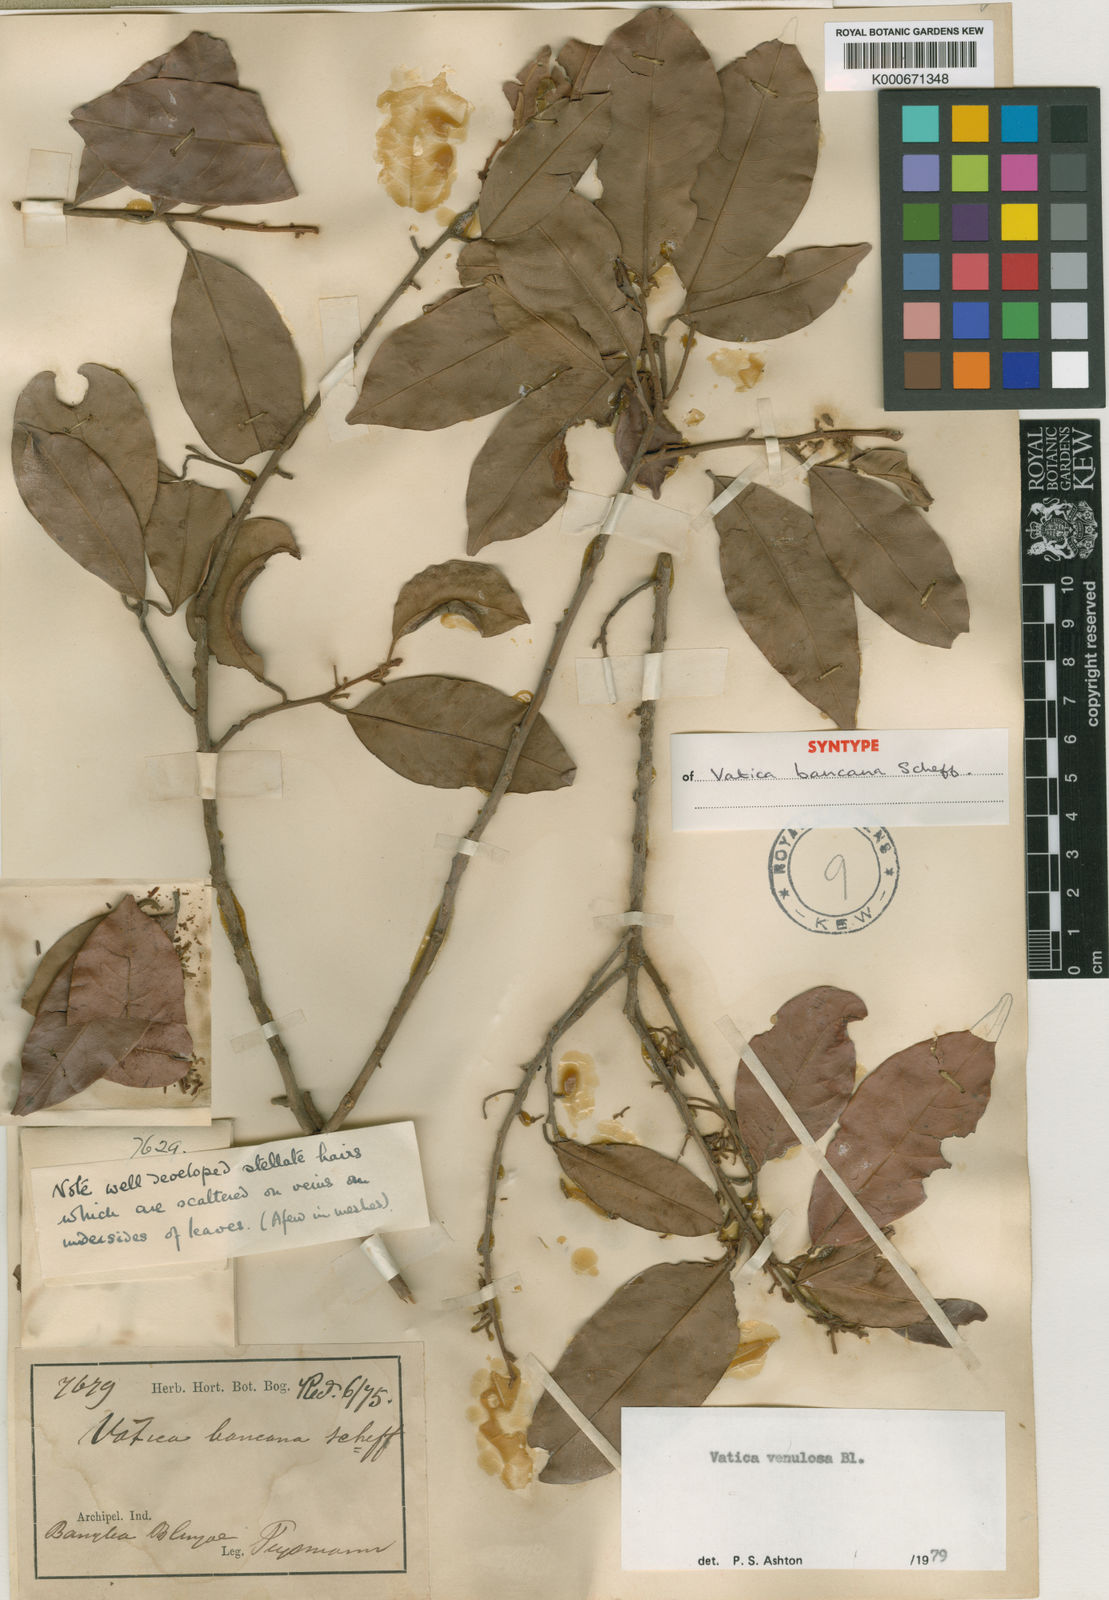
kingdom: Plantae
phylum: Tracheophyta
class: Magnoliopsida
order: Malvales
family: Dipterocarpaceae
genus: Vatica
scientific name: Vatica venulosa
